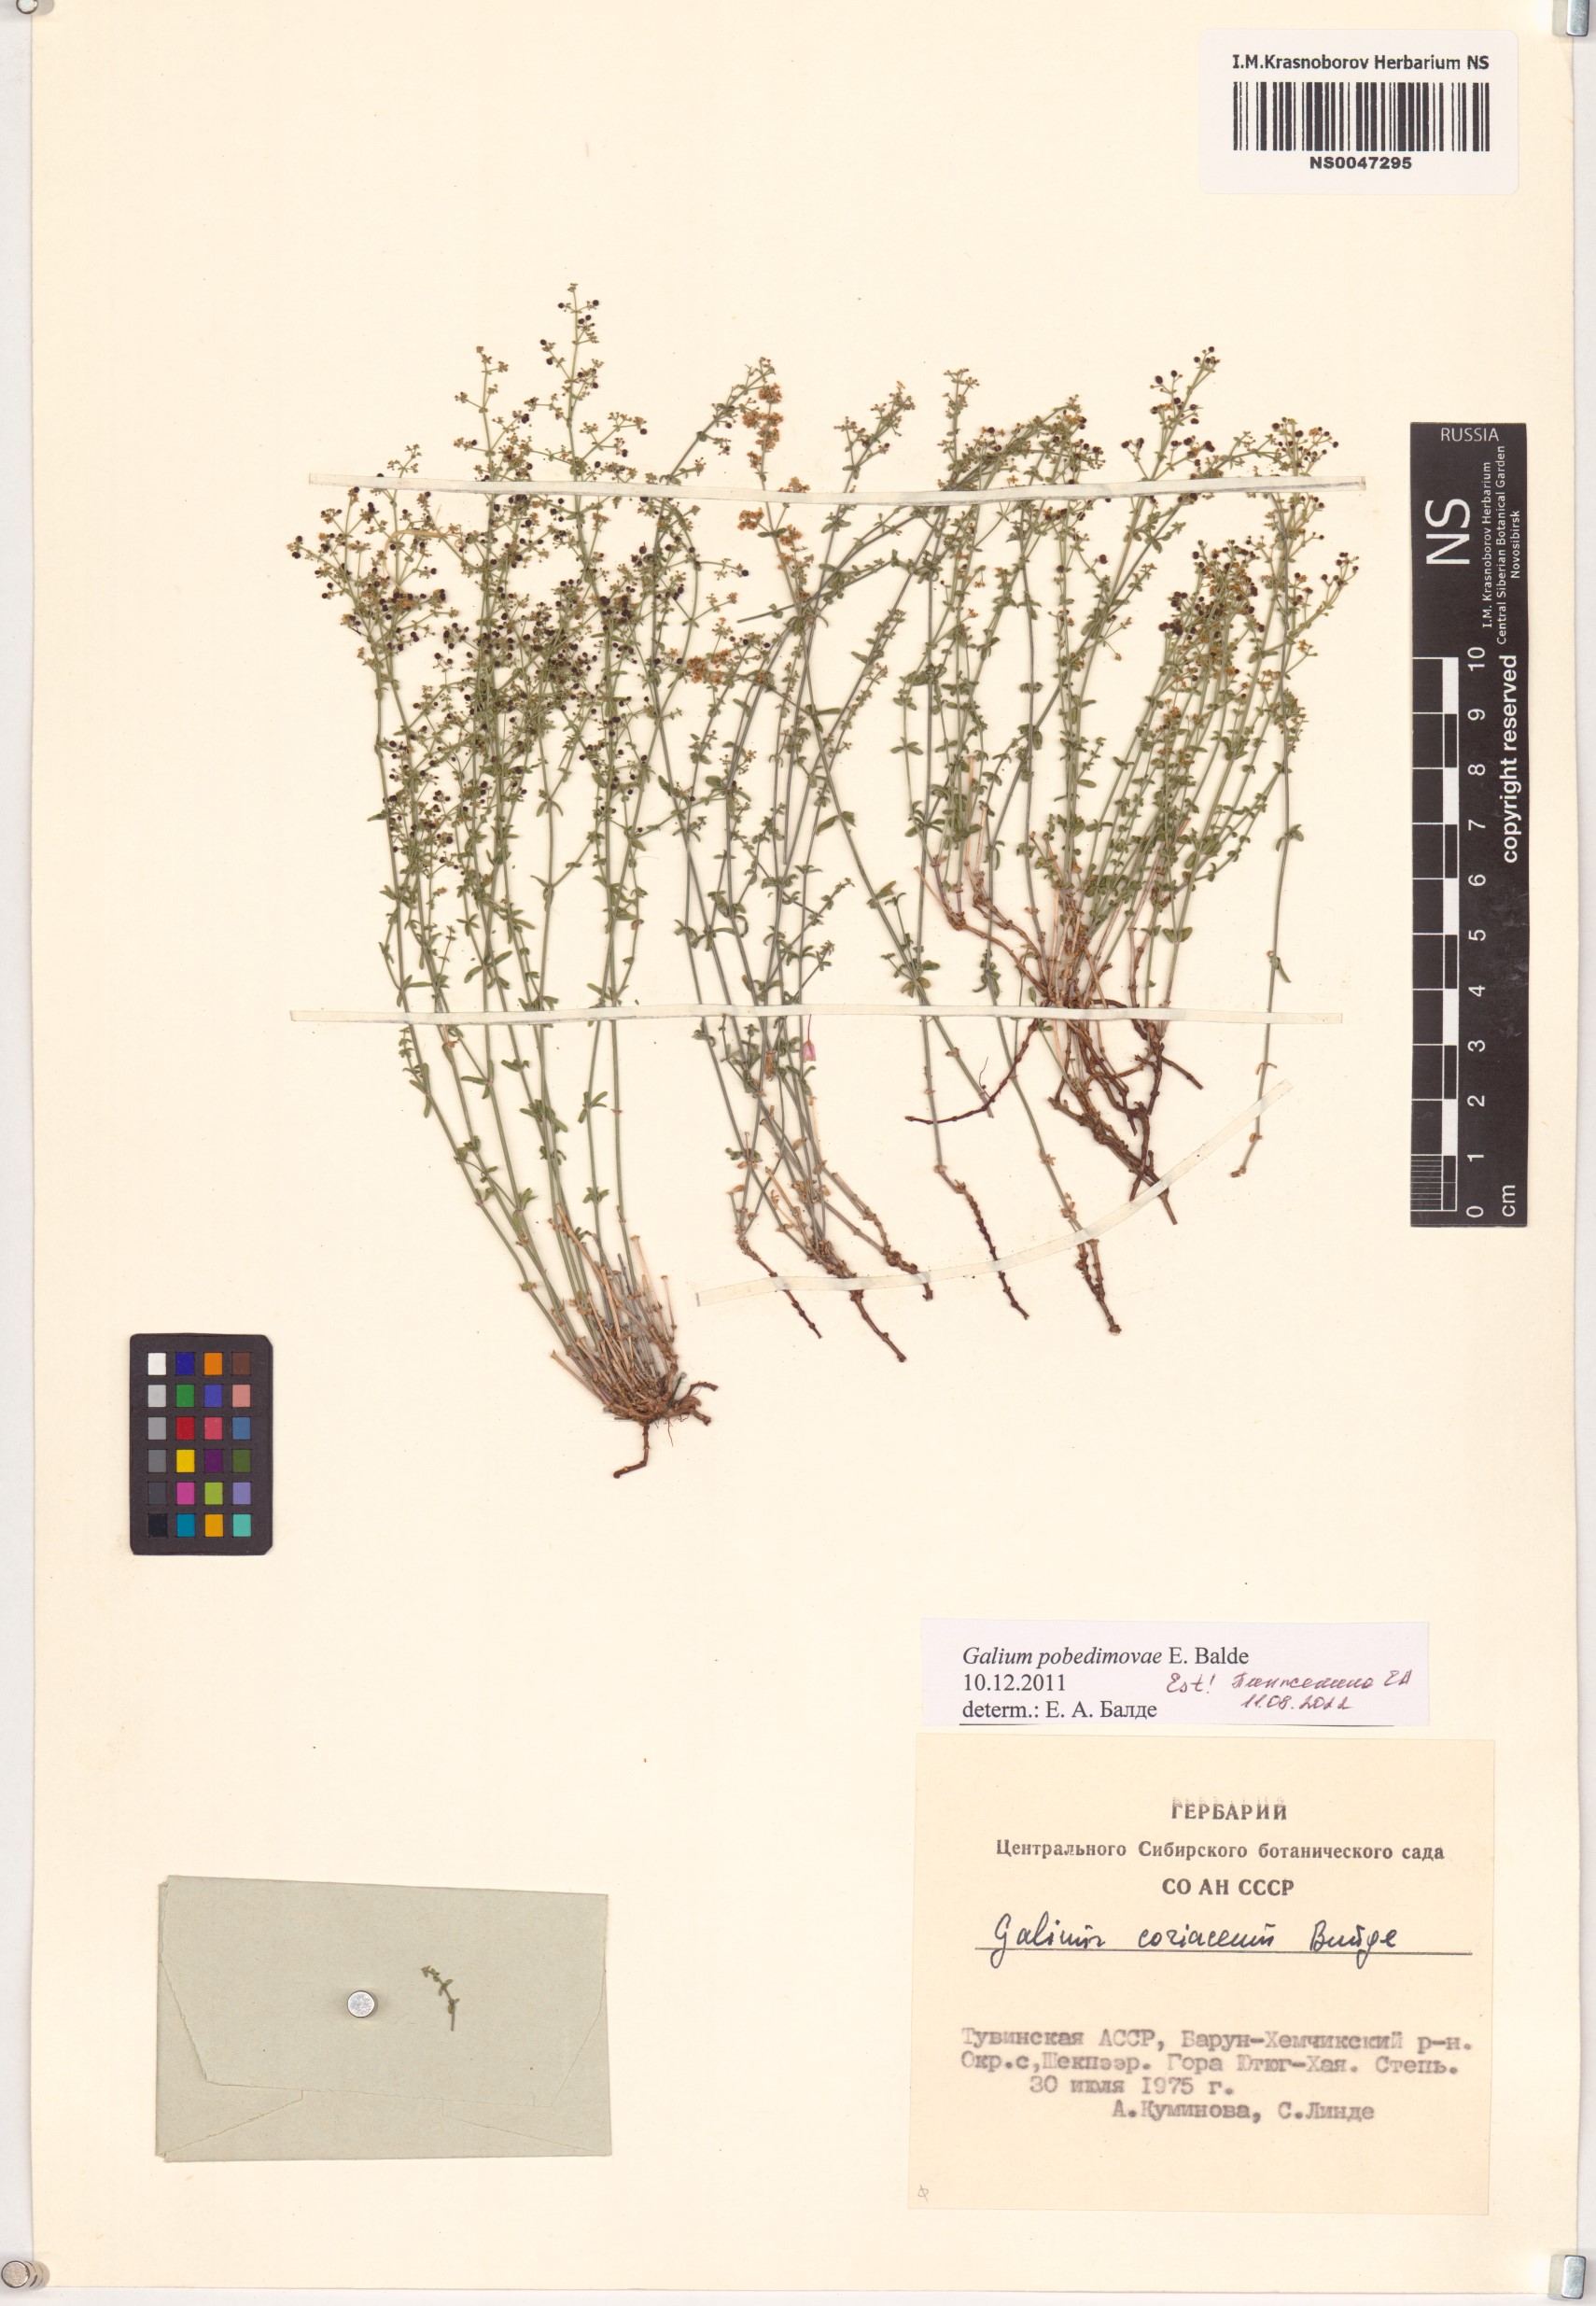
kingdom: Plantae
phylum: Tracheophyta
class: Magnoliopsida
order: Gentianales
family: Rubiaceae
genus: Galium
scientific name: Galium pobedimovae
